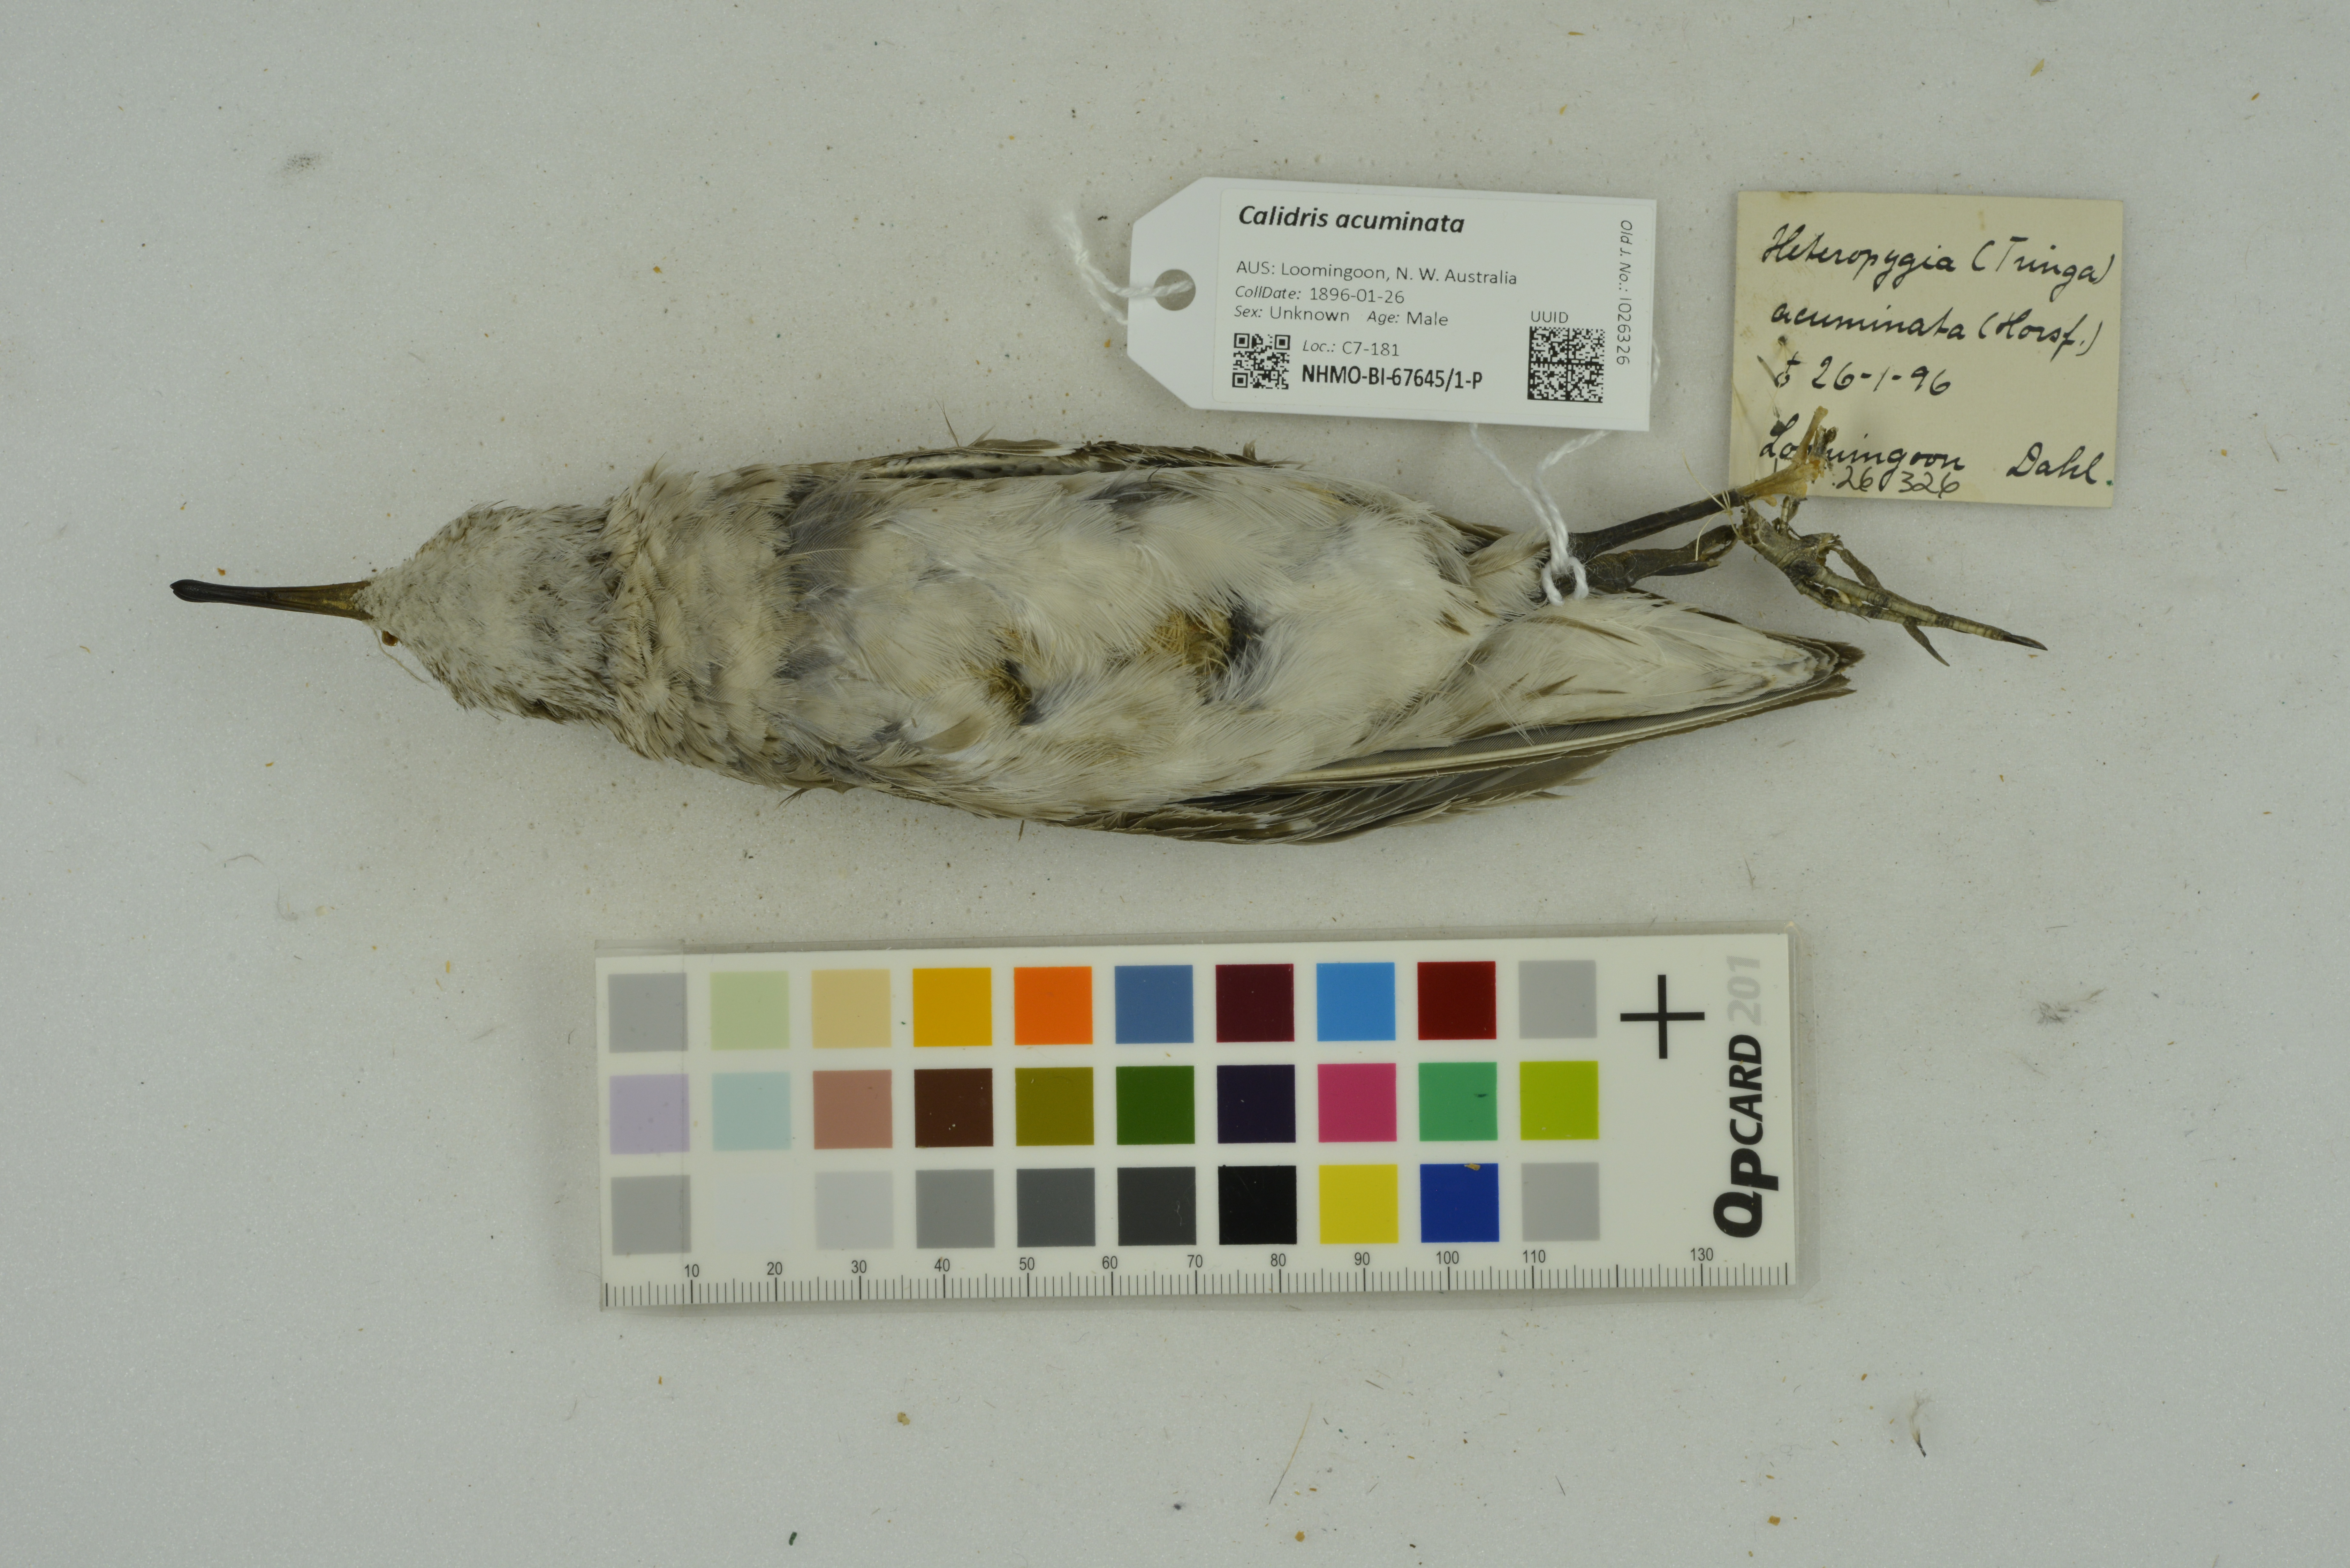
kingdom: Animalia
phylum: Chordata
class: Aves
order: Charadriiformes
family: Scolopacidae
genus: Calidris
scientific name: Calidris acuminata
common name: Sharp-tailed sandpiper
